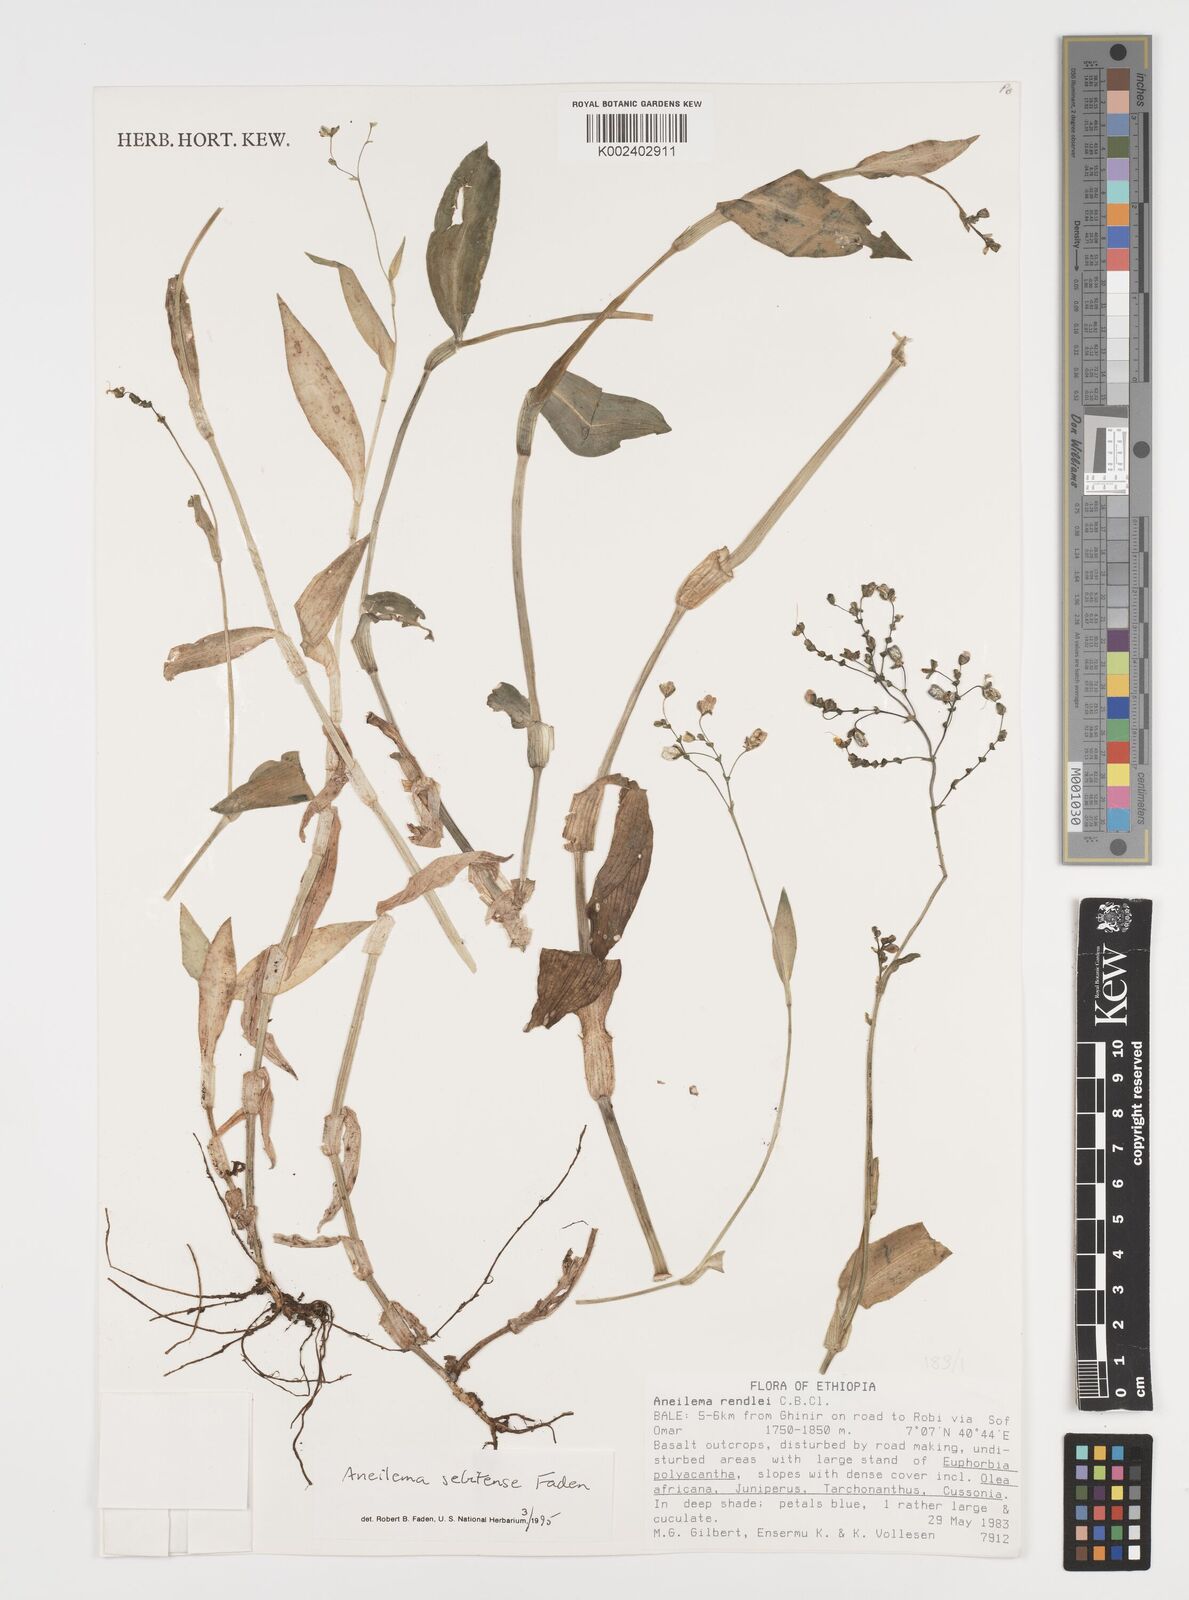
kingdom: Plantae
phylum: Tracheophyta
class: Liliopsida
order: Commelinales
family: Commelinaceae
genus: Aneilema
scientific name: Aneilema sebitense
